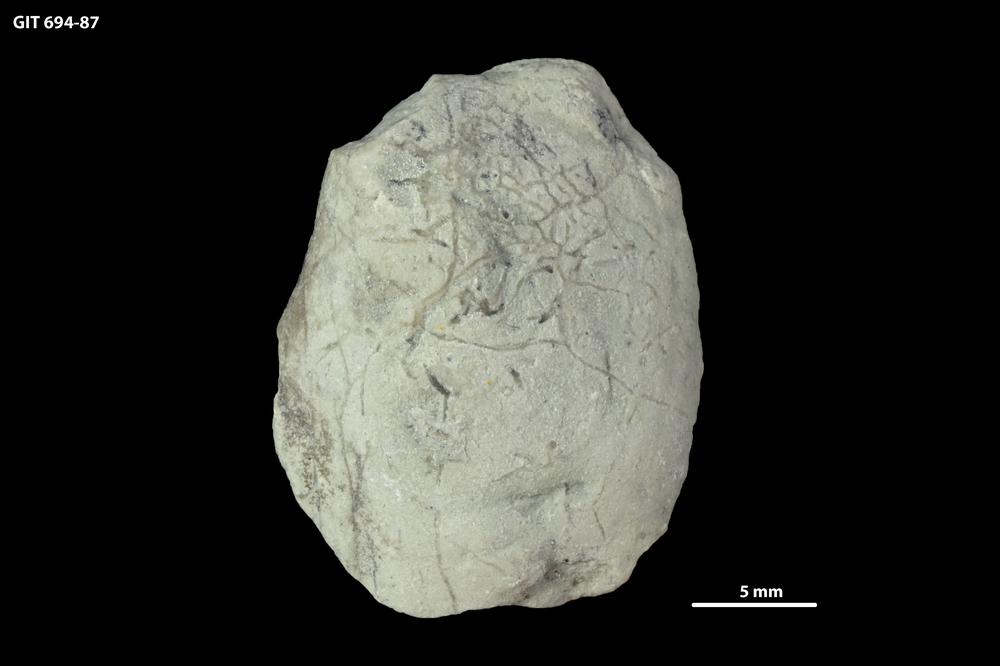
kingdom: Animalia
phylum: Mollusca
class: Bivalvia
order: Modiomorphida
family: Modiomorphidae
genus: Aristerella
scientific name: Aristerella
